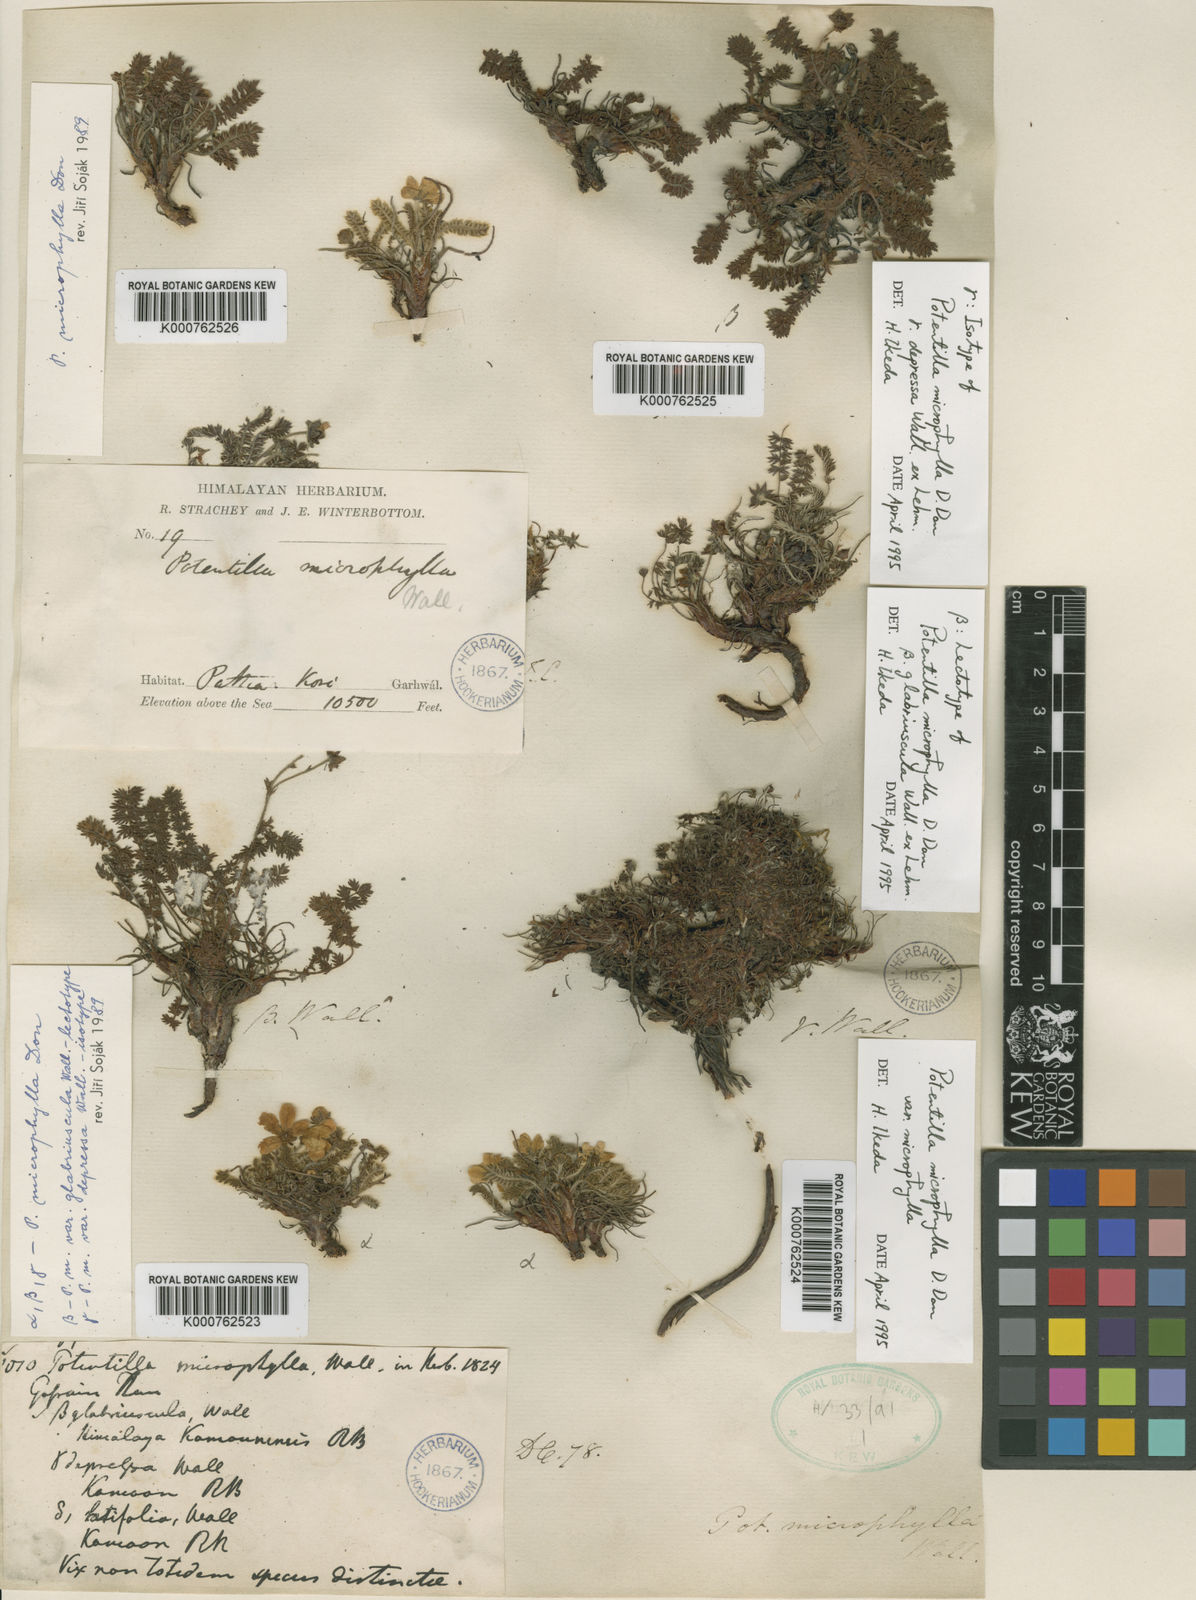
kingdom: Plantae
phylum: Tracheophyta
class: Magnoliopsida
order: Rosales
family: Rosaceae
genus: Argentina
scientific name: Argentina microphylla
